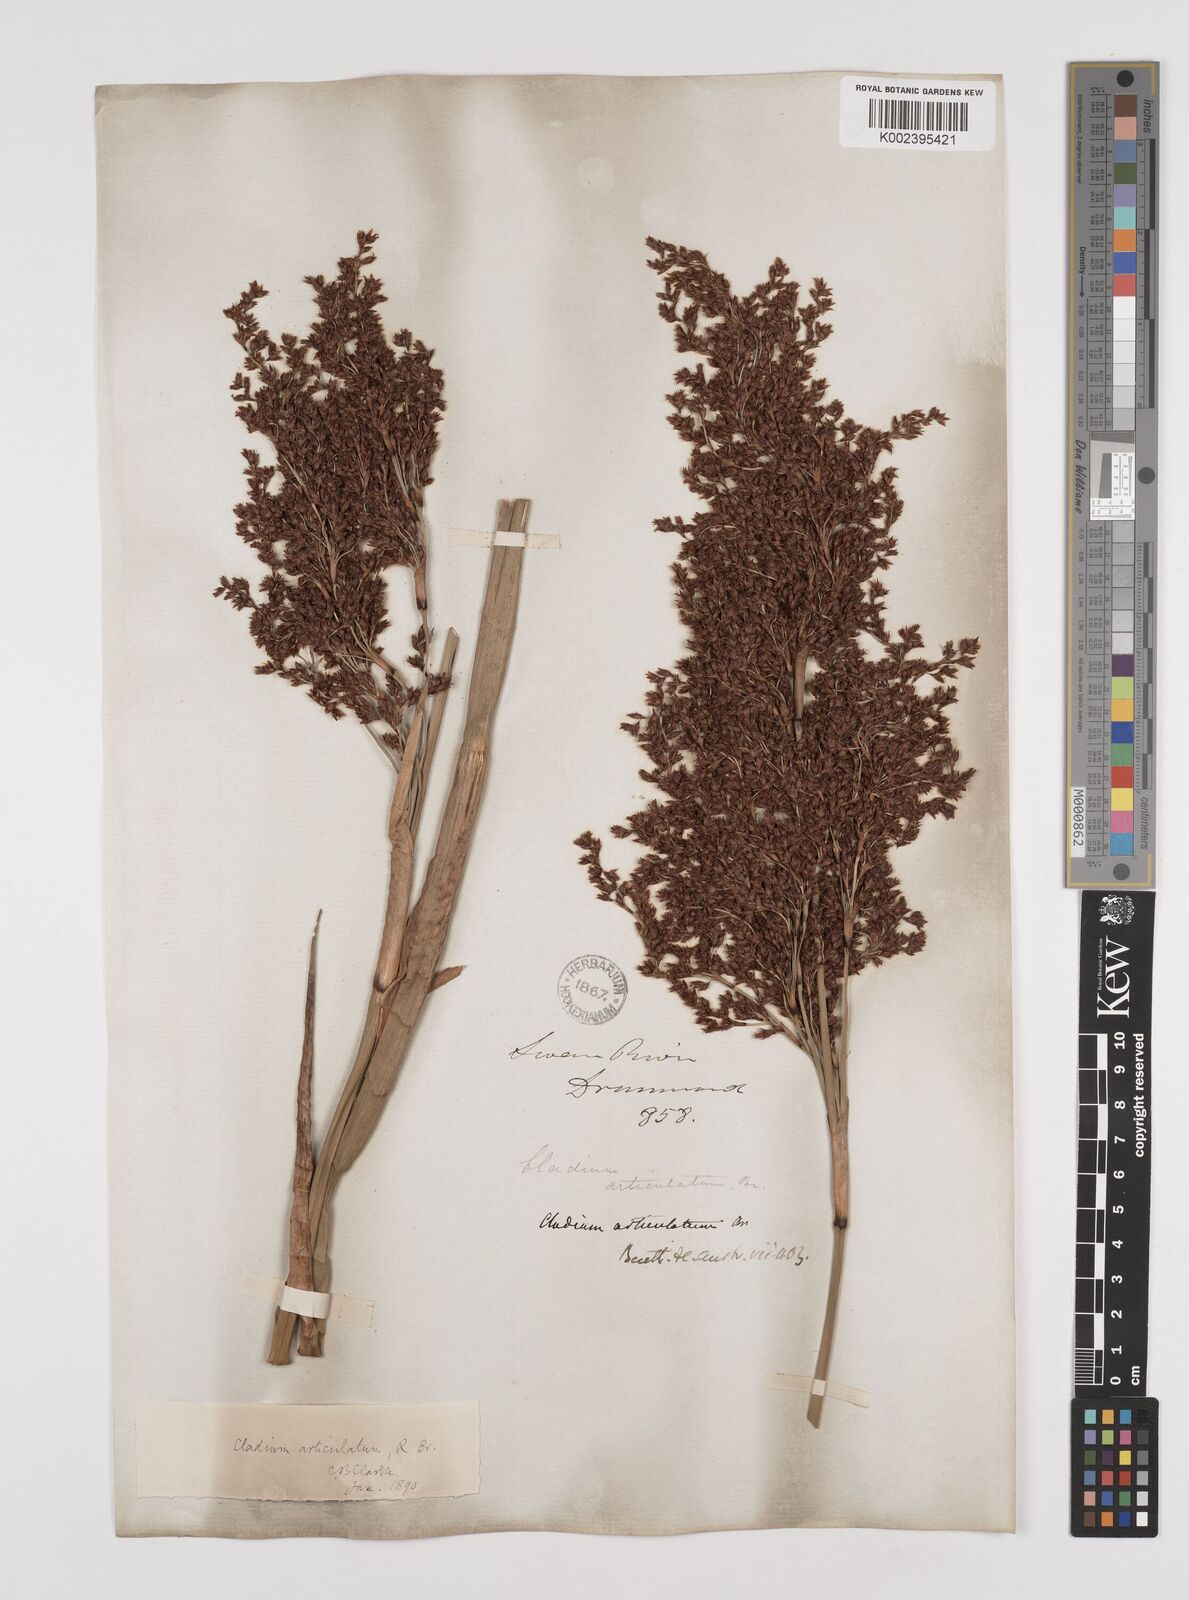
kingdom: Plantae
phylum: Tracheophyta
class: Liliopsida
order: Poales
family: Cyperaceae
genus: Machaerina
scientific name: Machaerina articulata
